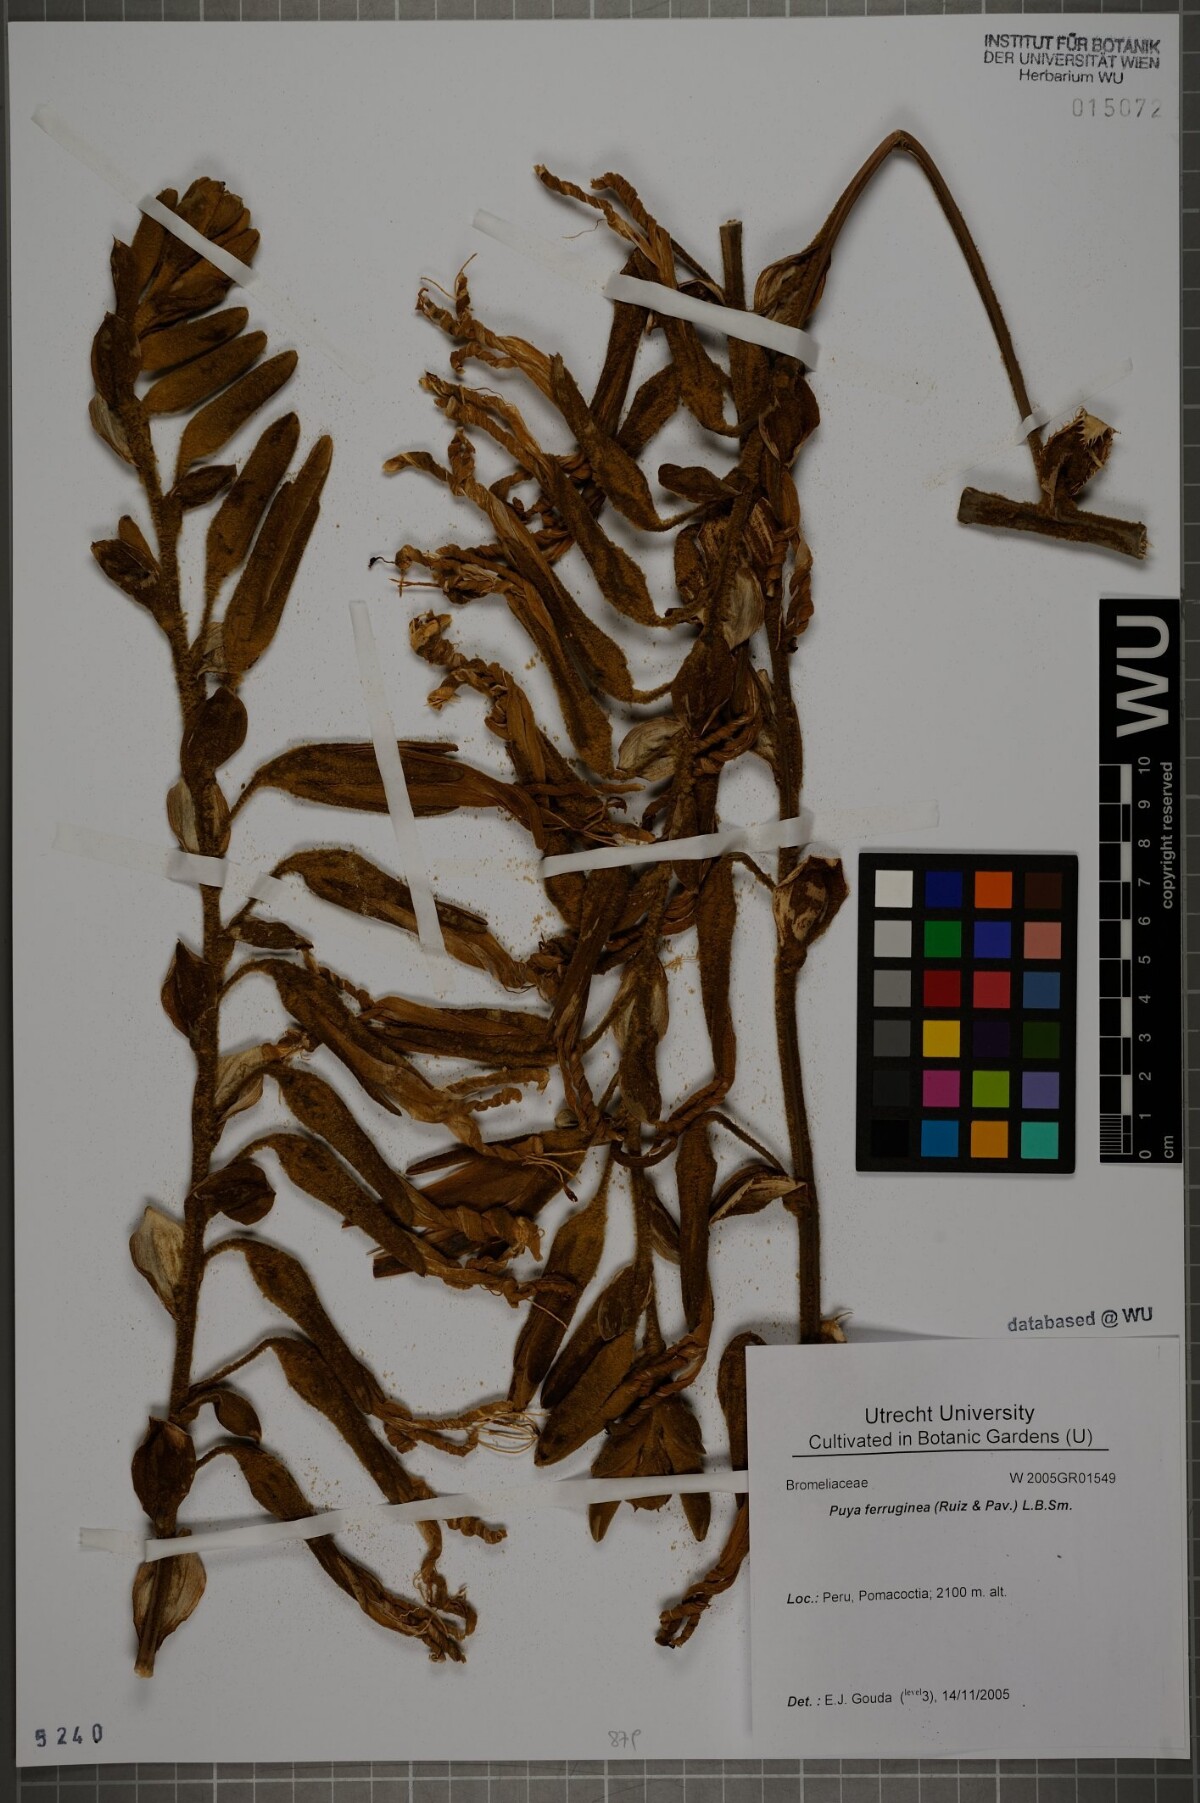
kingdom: Plantae
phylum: Tracheophyta
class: Liliopsida
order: Poales
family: Bromeliaceae
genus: Puya
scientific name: Puya ferruginea
